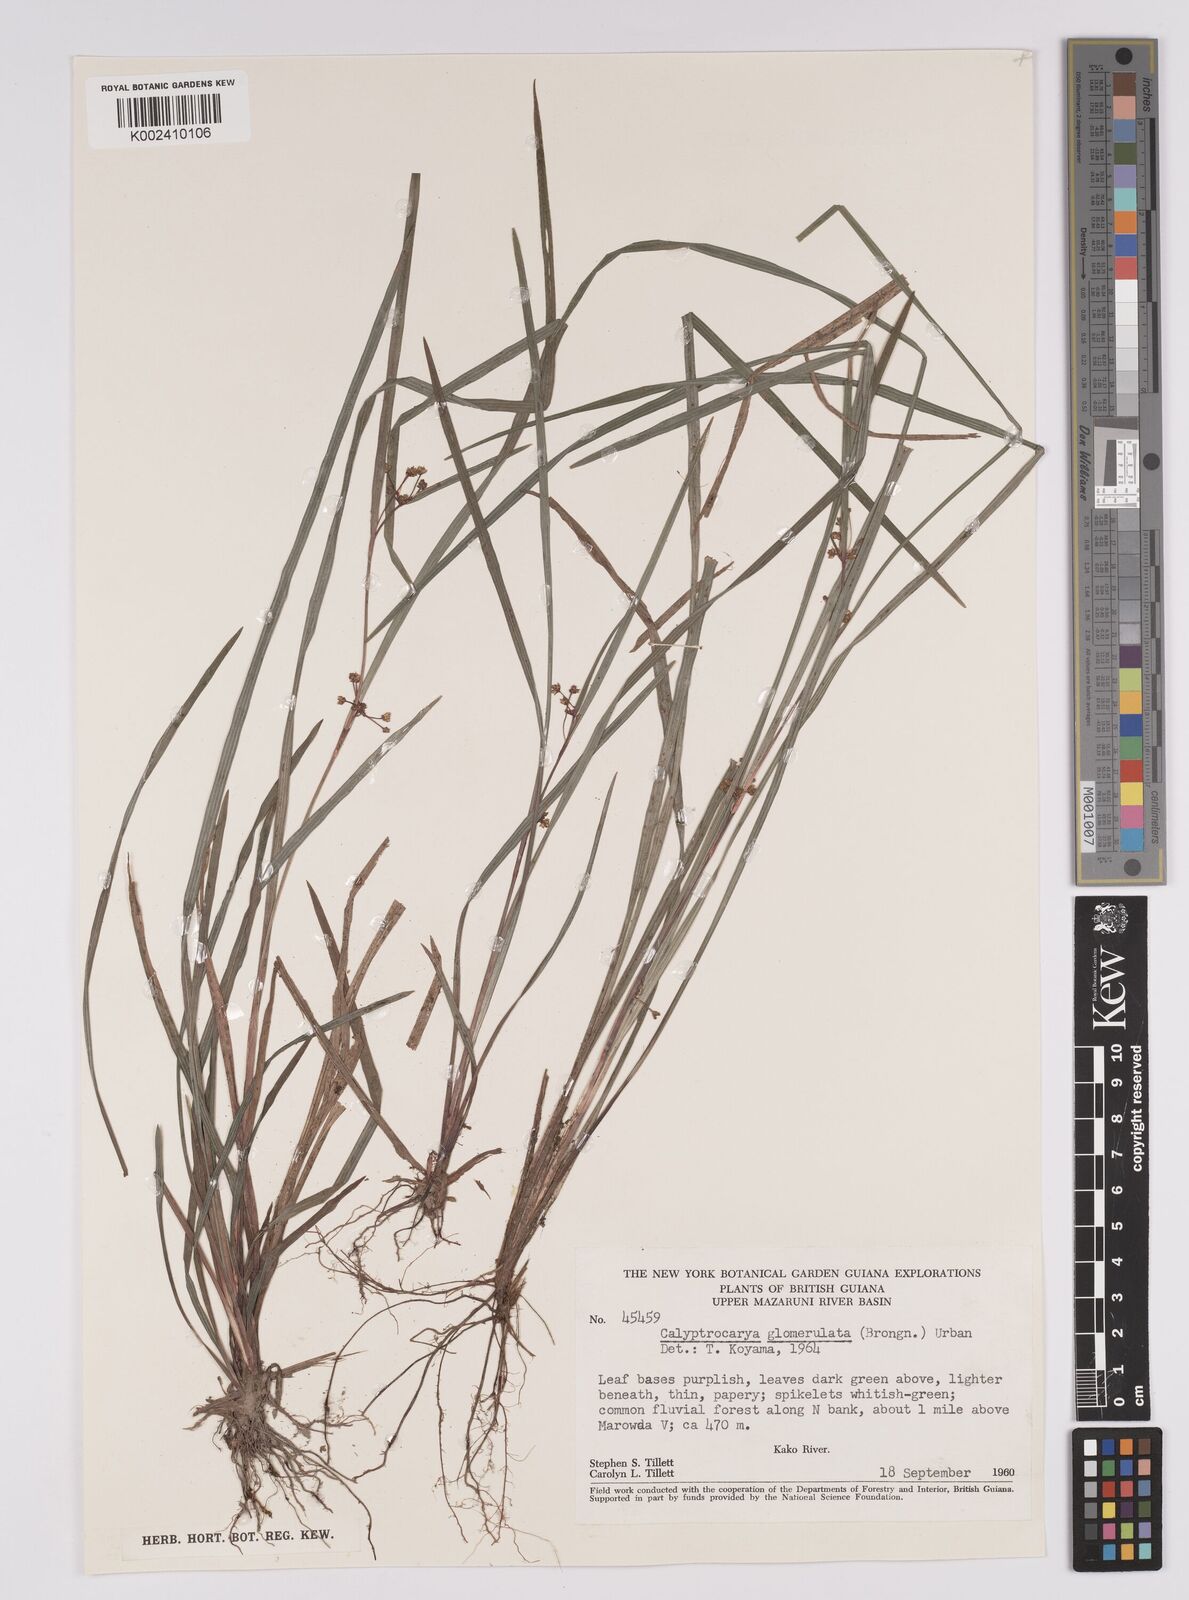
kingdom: Plantae
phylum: Tracheophyta
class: Liliopsida
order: Poales
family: Cyperaceae
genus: Calyptrocarya
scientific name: Calyptrocarya glomerulata
